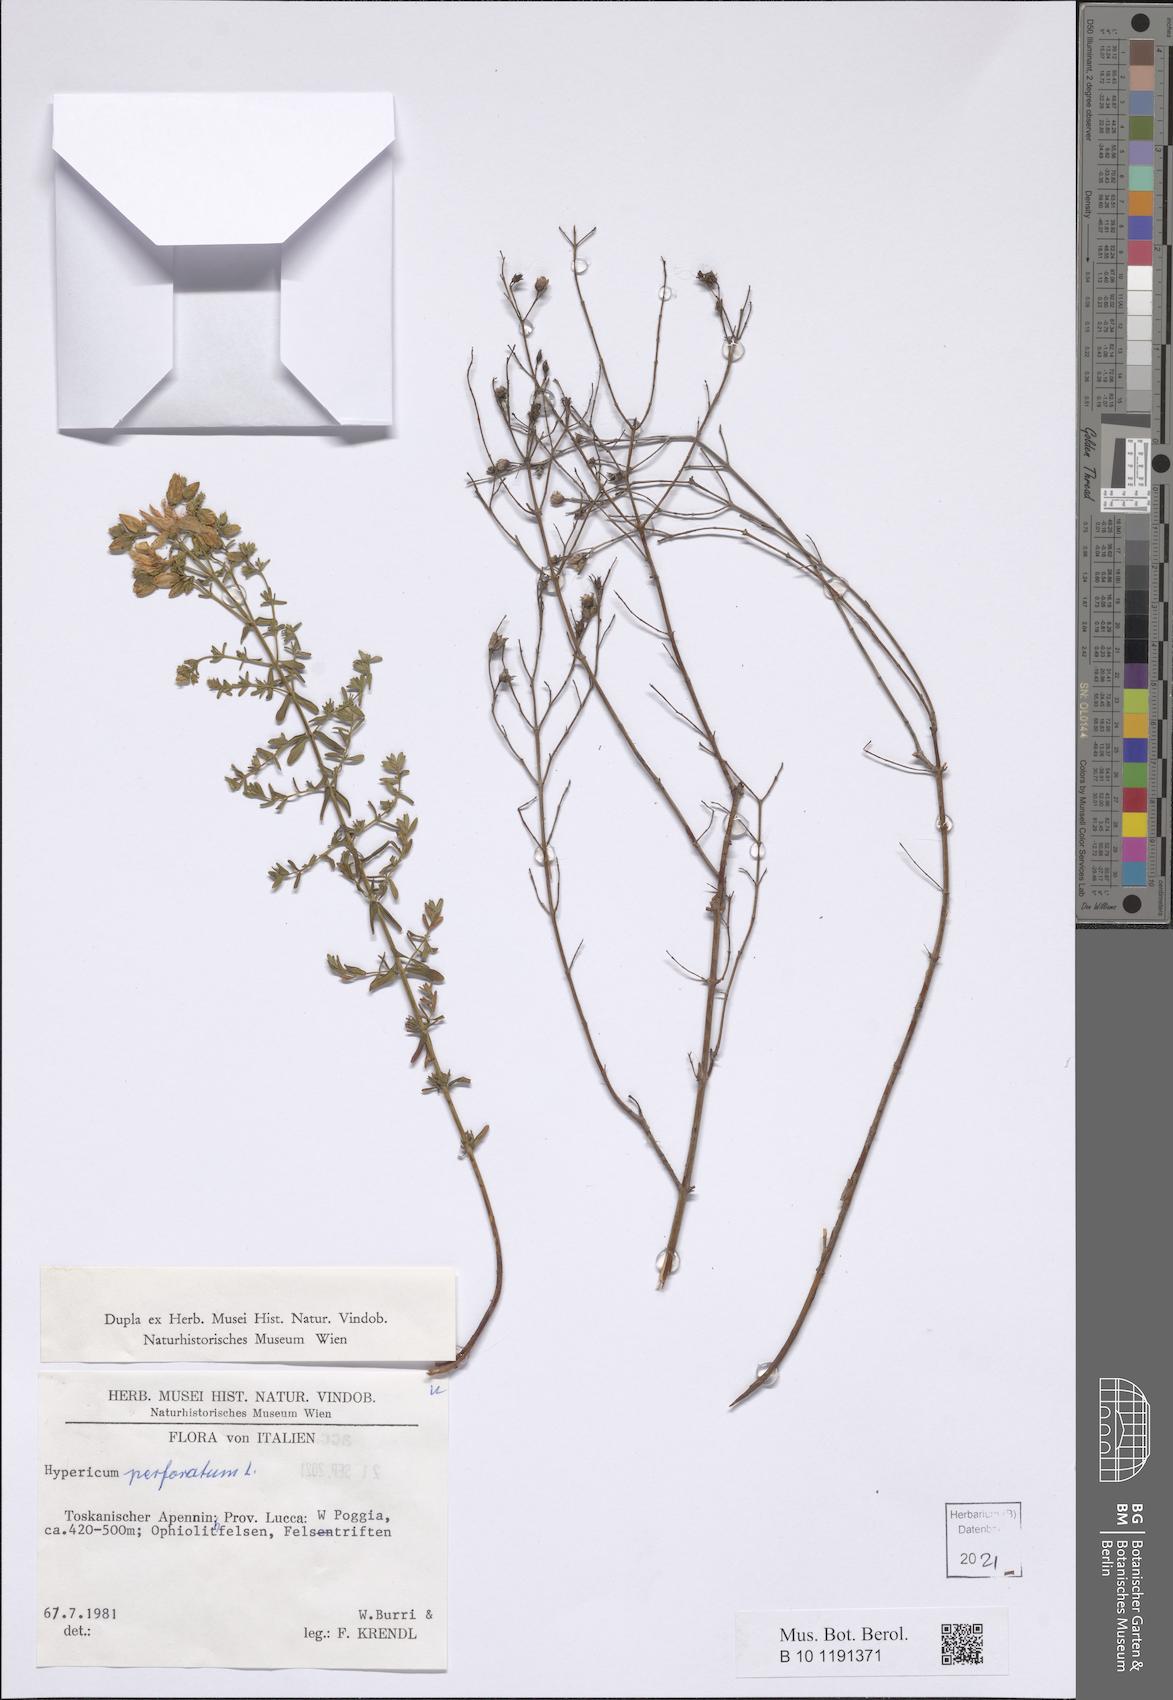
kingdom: Plantae
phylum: Tracheophyta
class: Magnoliopsida
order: Malpighiales
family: Hypericaceae
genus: Hypericum
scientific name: Hypericum perforatum
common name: Common st. johnswort
